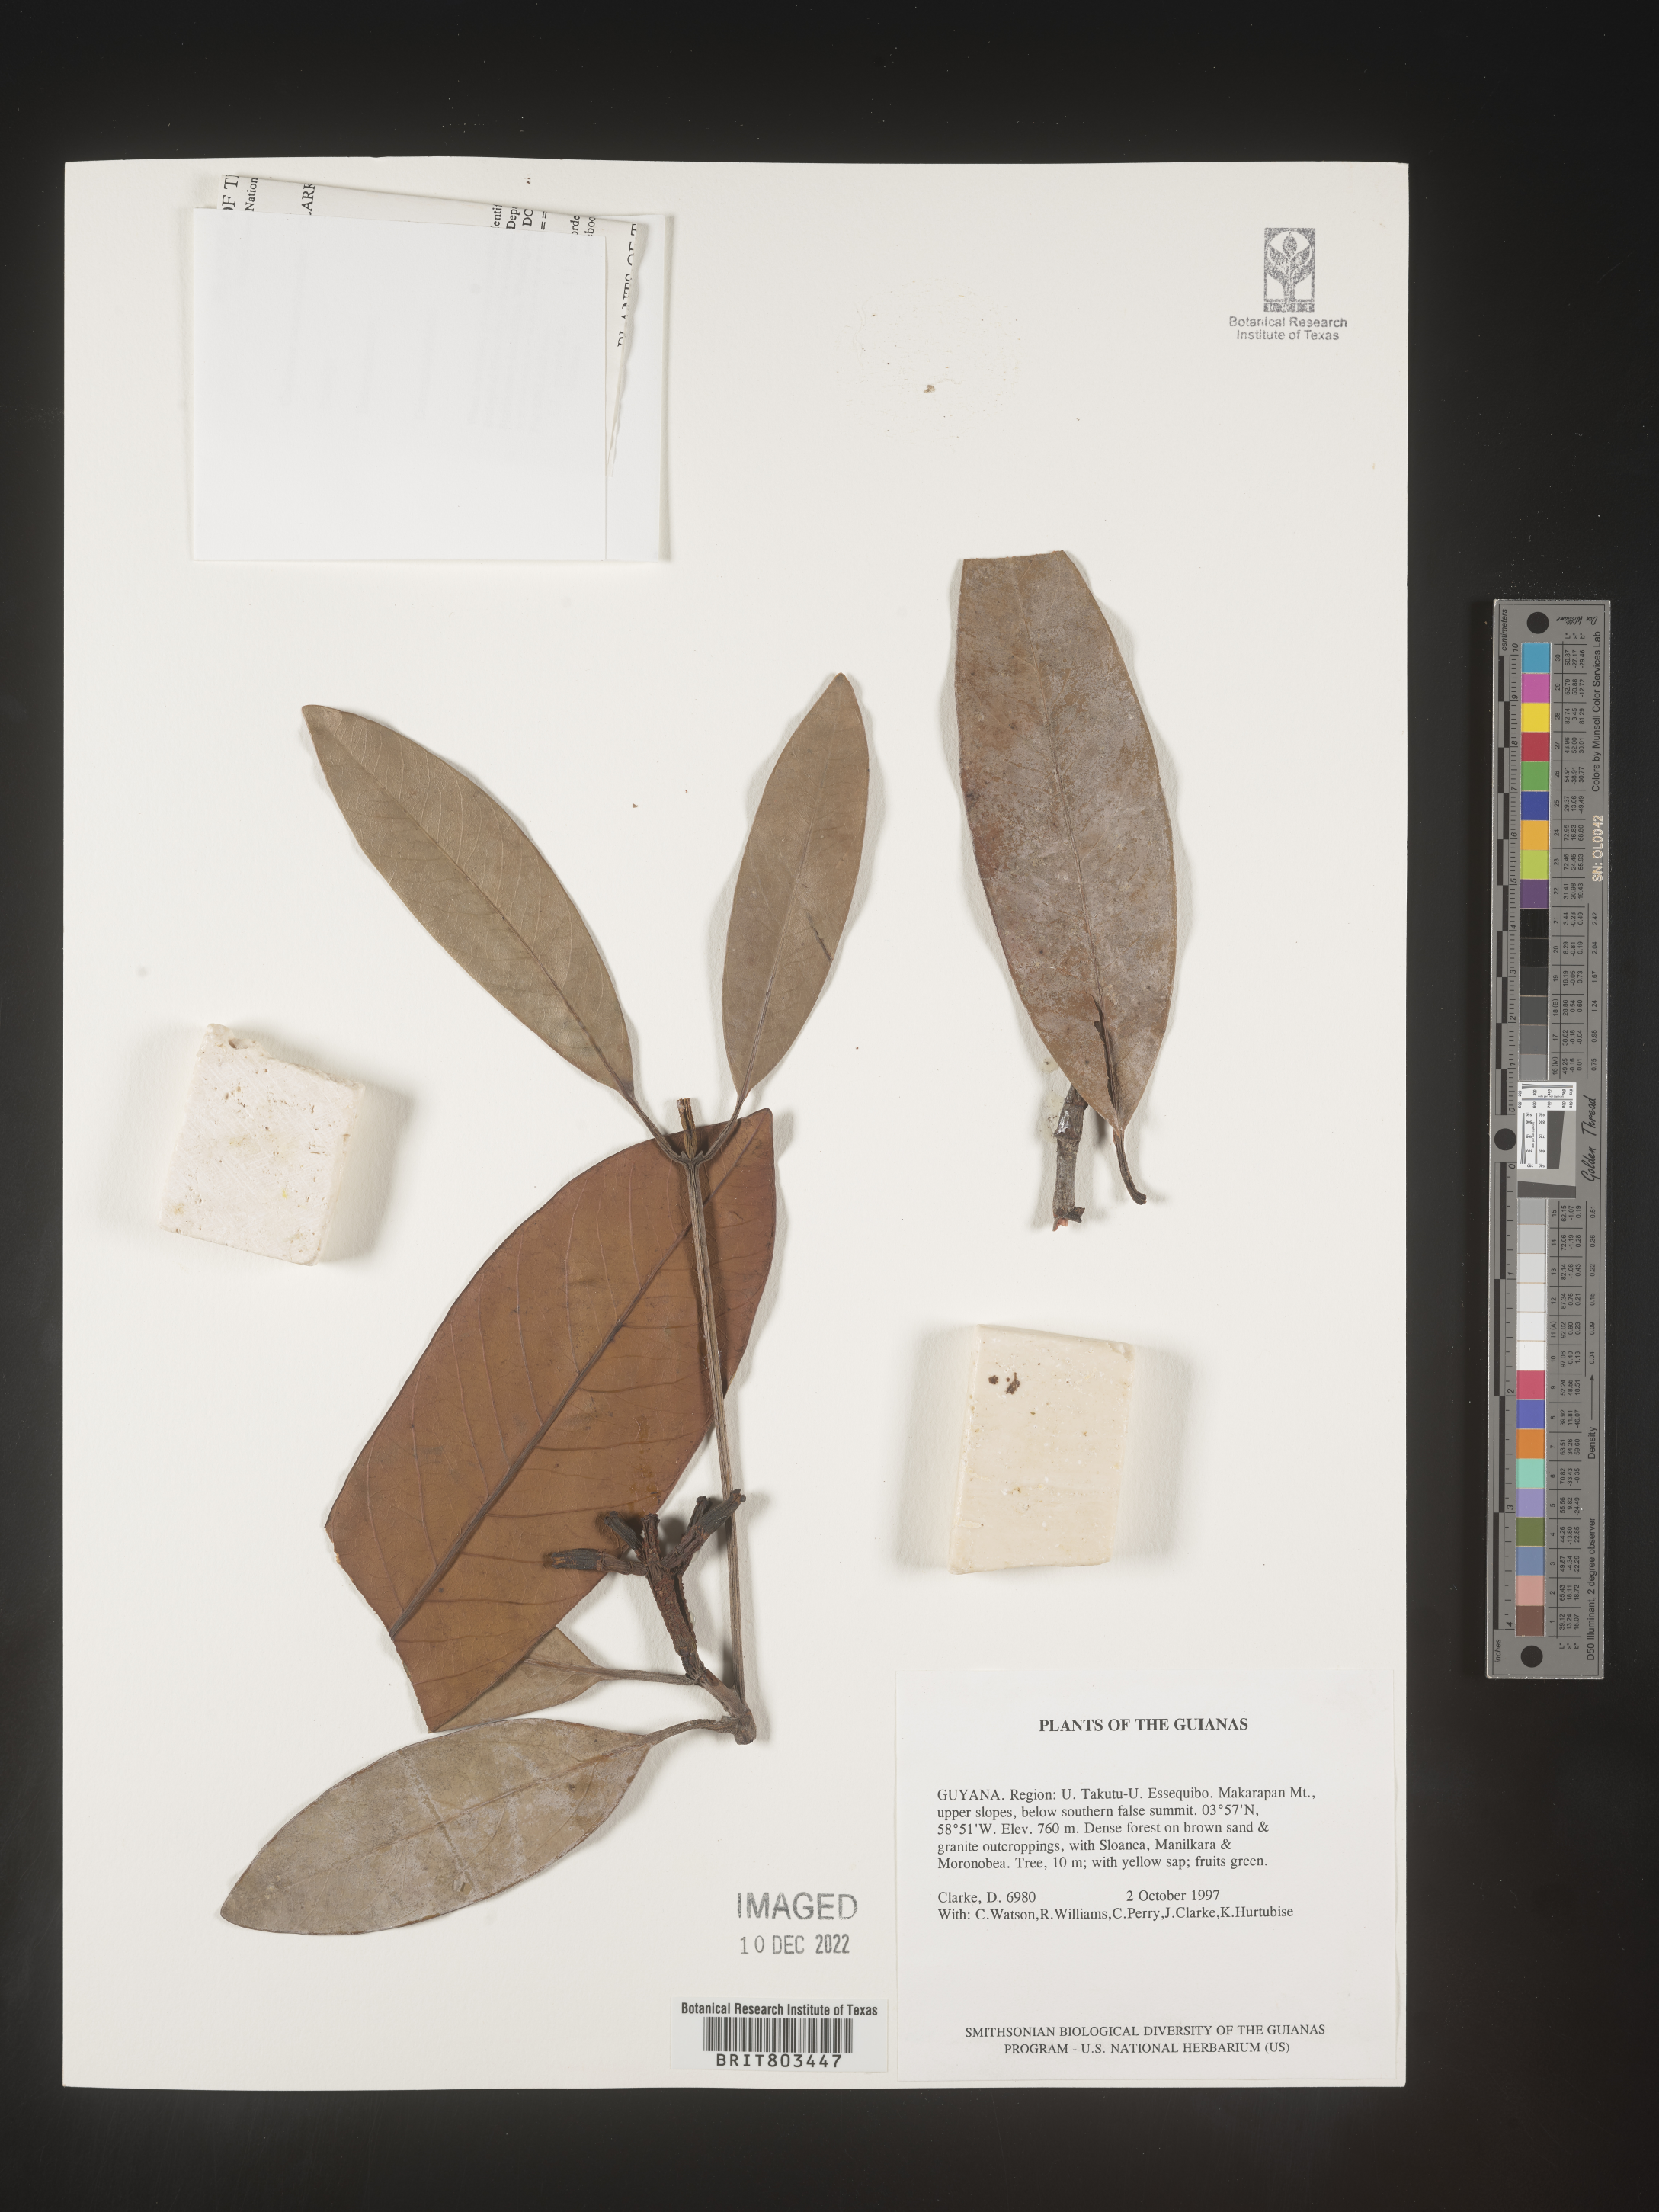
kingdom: Plantae
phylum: Tracheophyta
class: Magnoliopsida
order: Malpighiales
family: Clusiaceae
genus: Tovomita
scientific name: Tovomita
